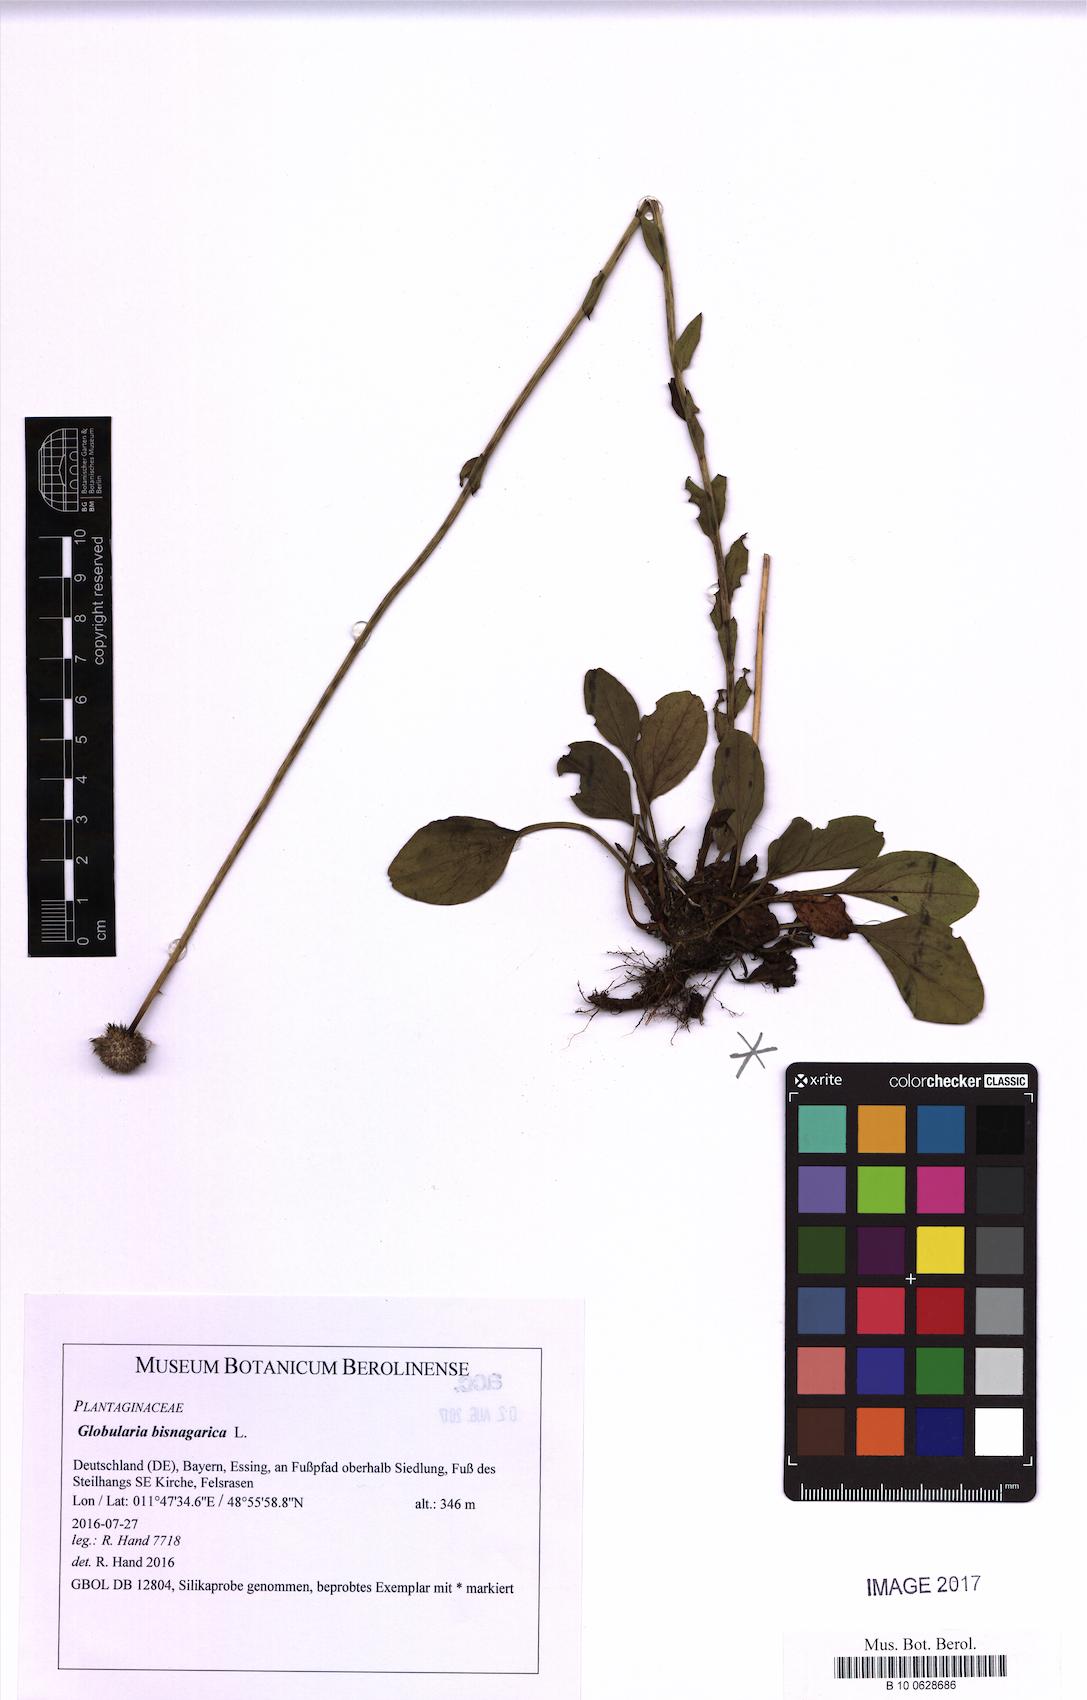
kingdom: Plantae
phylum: Tracheophyta
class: Magnoliopsida
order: Lamiales
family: Plantaginaceae
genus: Globularia
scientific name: Globularia bisnagarica
